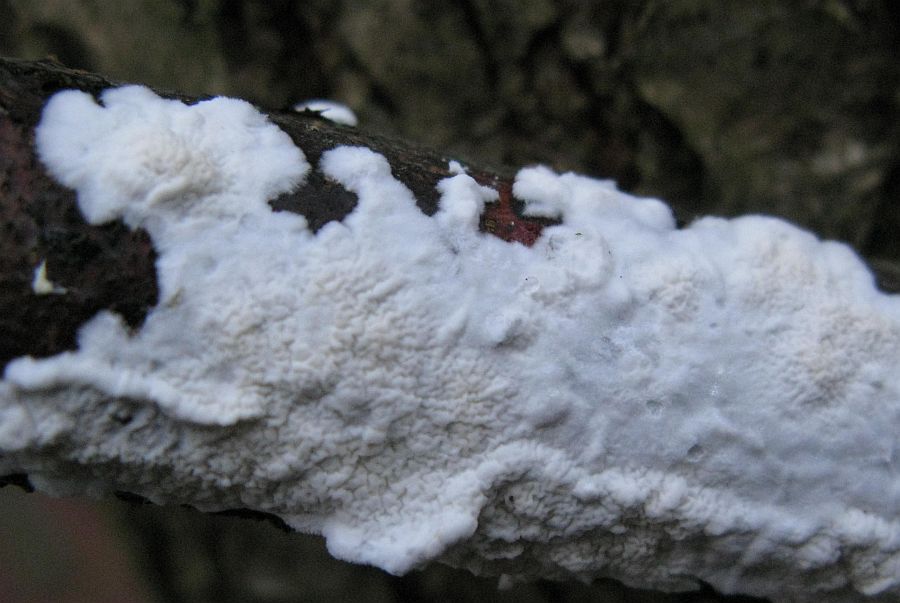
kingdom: Fungi
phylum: Basidiomycota
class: Agaricomycetes
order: Polyporales
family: Irpicaceae
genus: Byssomerulius
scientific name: Byssomerulius corium
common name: læder-åresvamp
